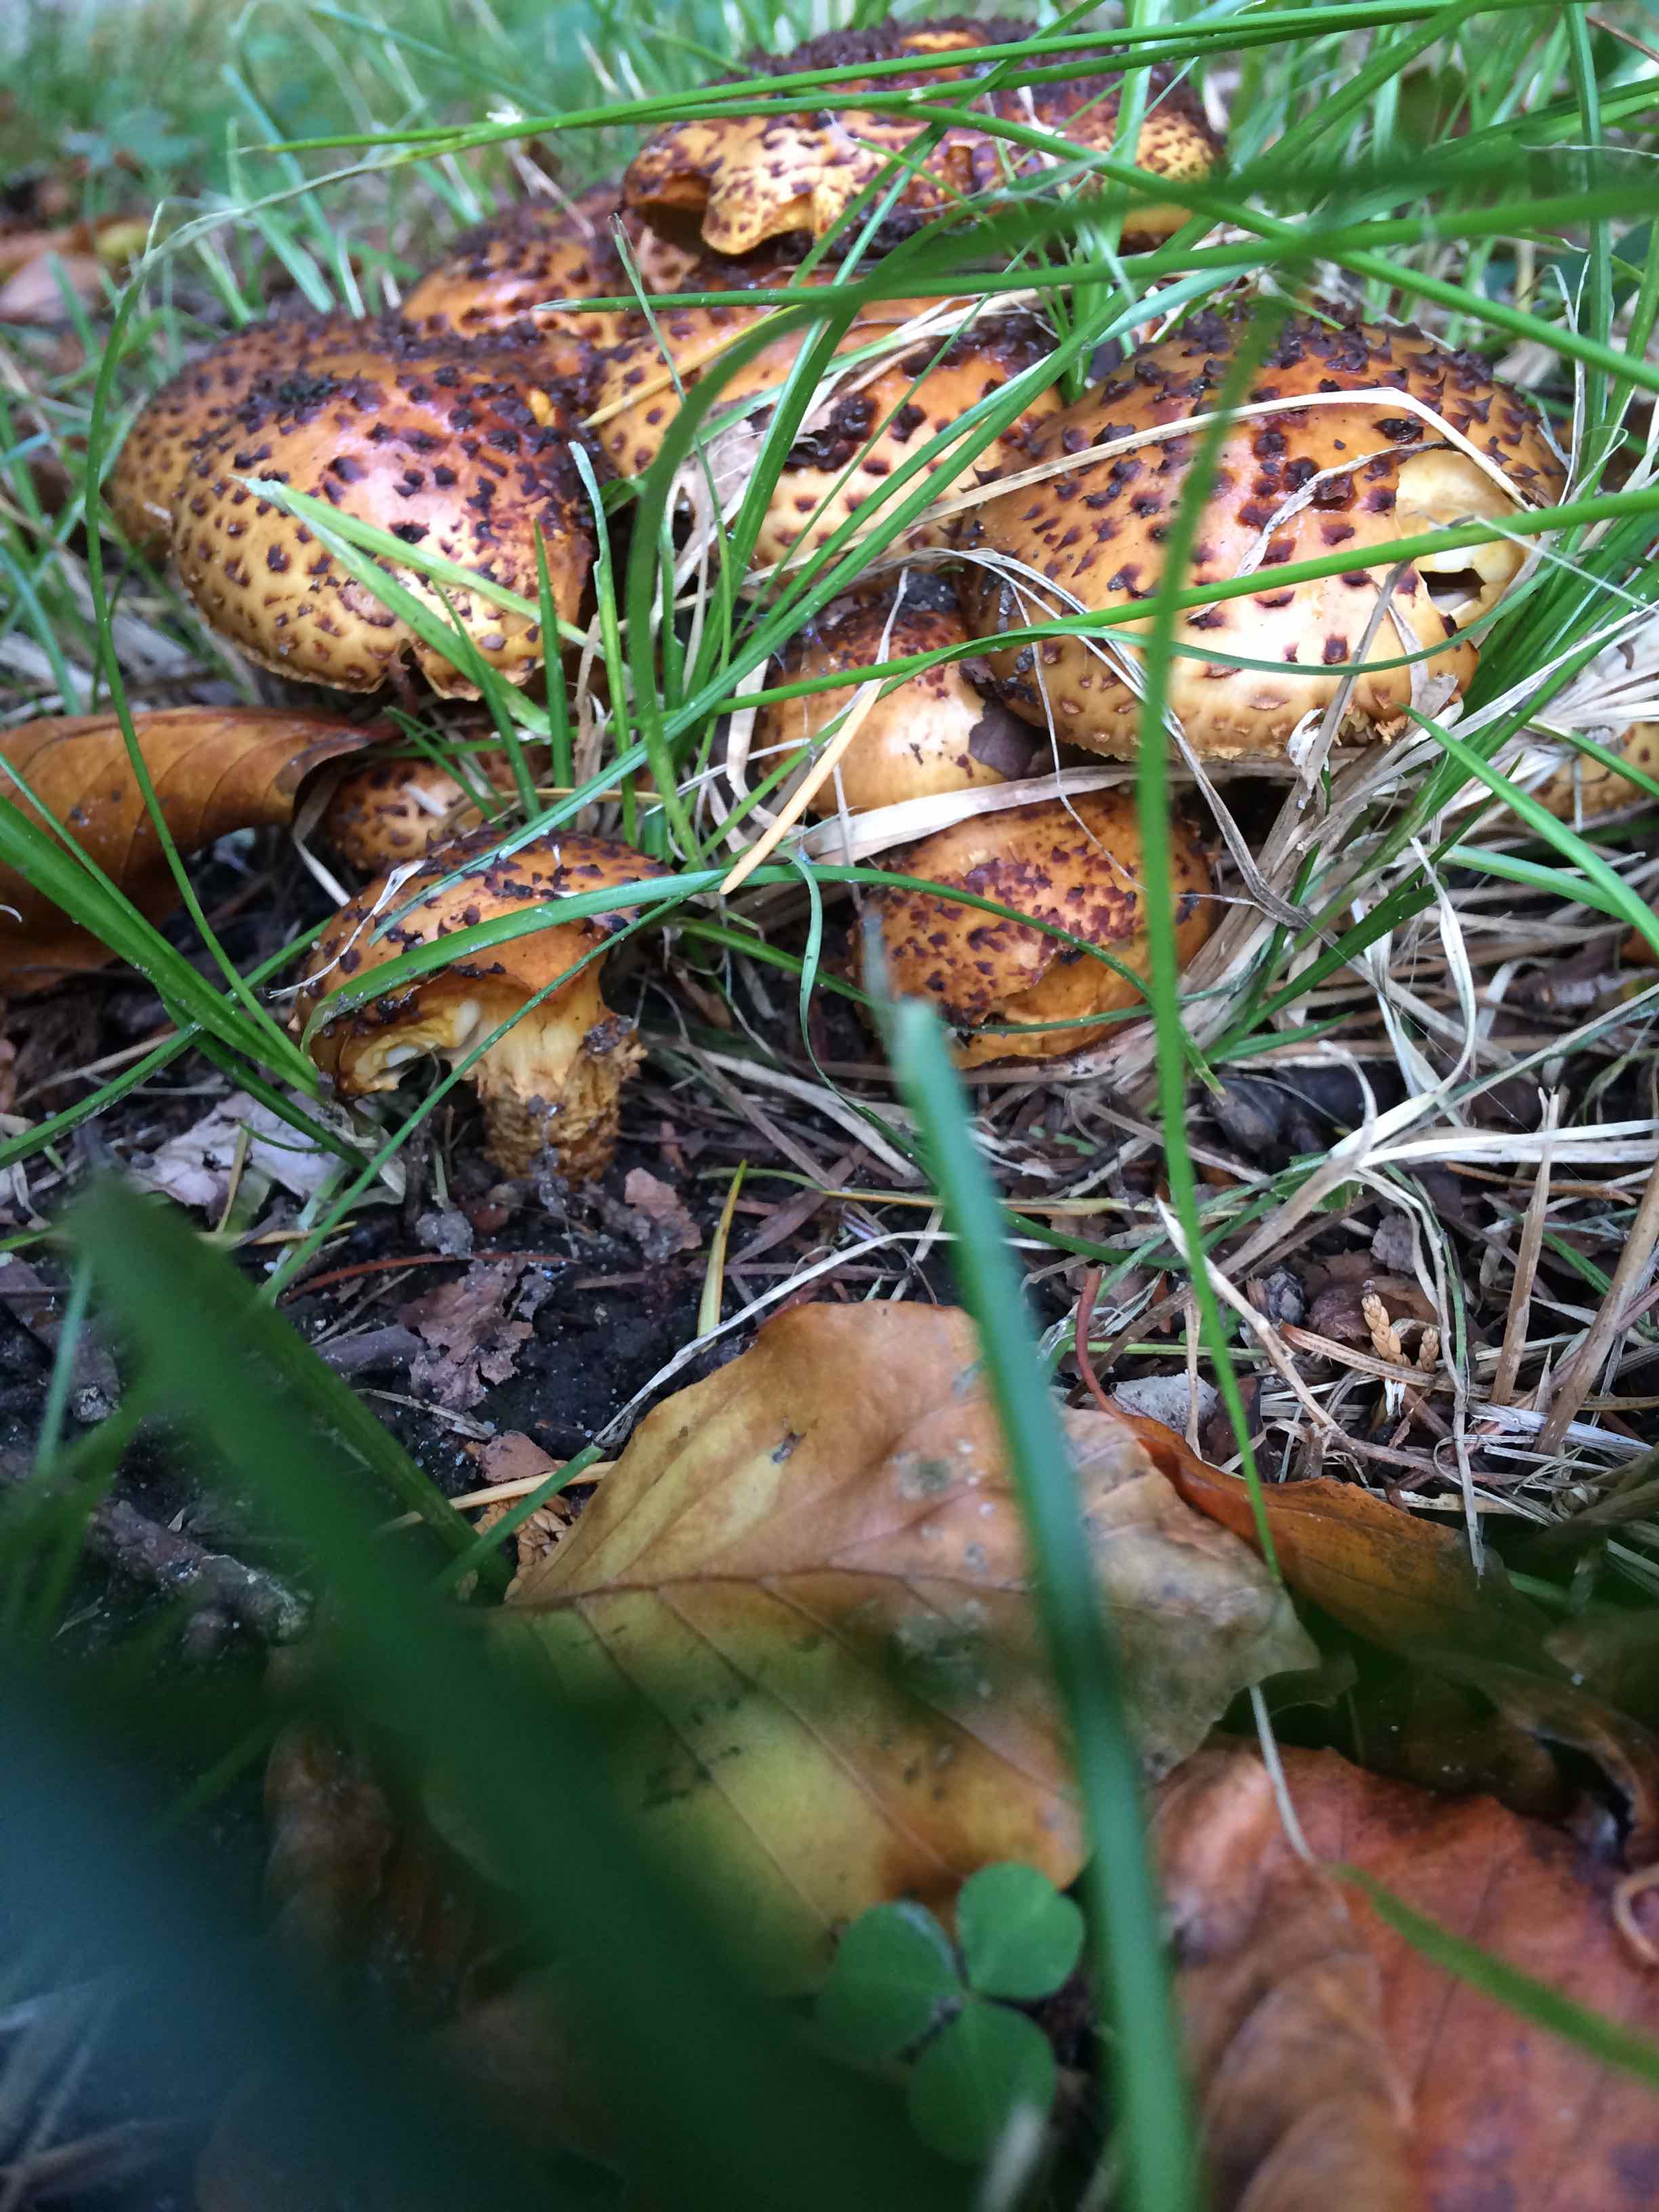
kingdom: Fungi
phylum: Basidiomycota
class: Agaricomycetes
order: Agaricales
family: Strophariaceae
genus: Pholiota
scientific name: Pholiota jahnii
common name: slimet skælhat
